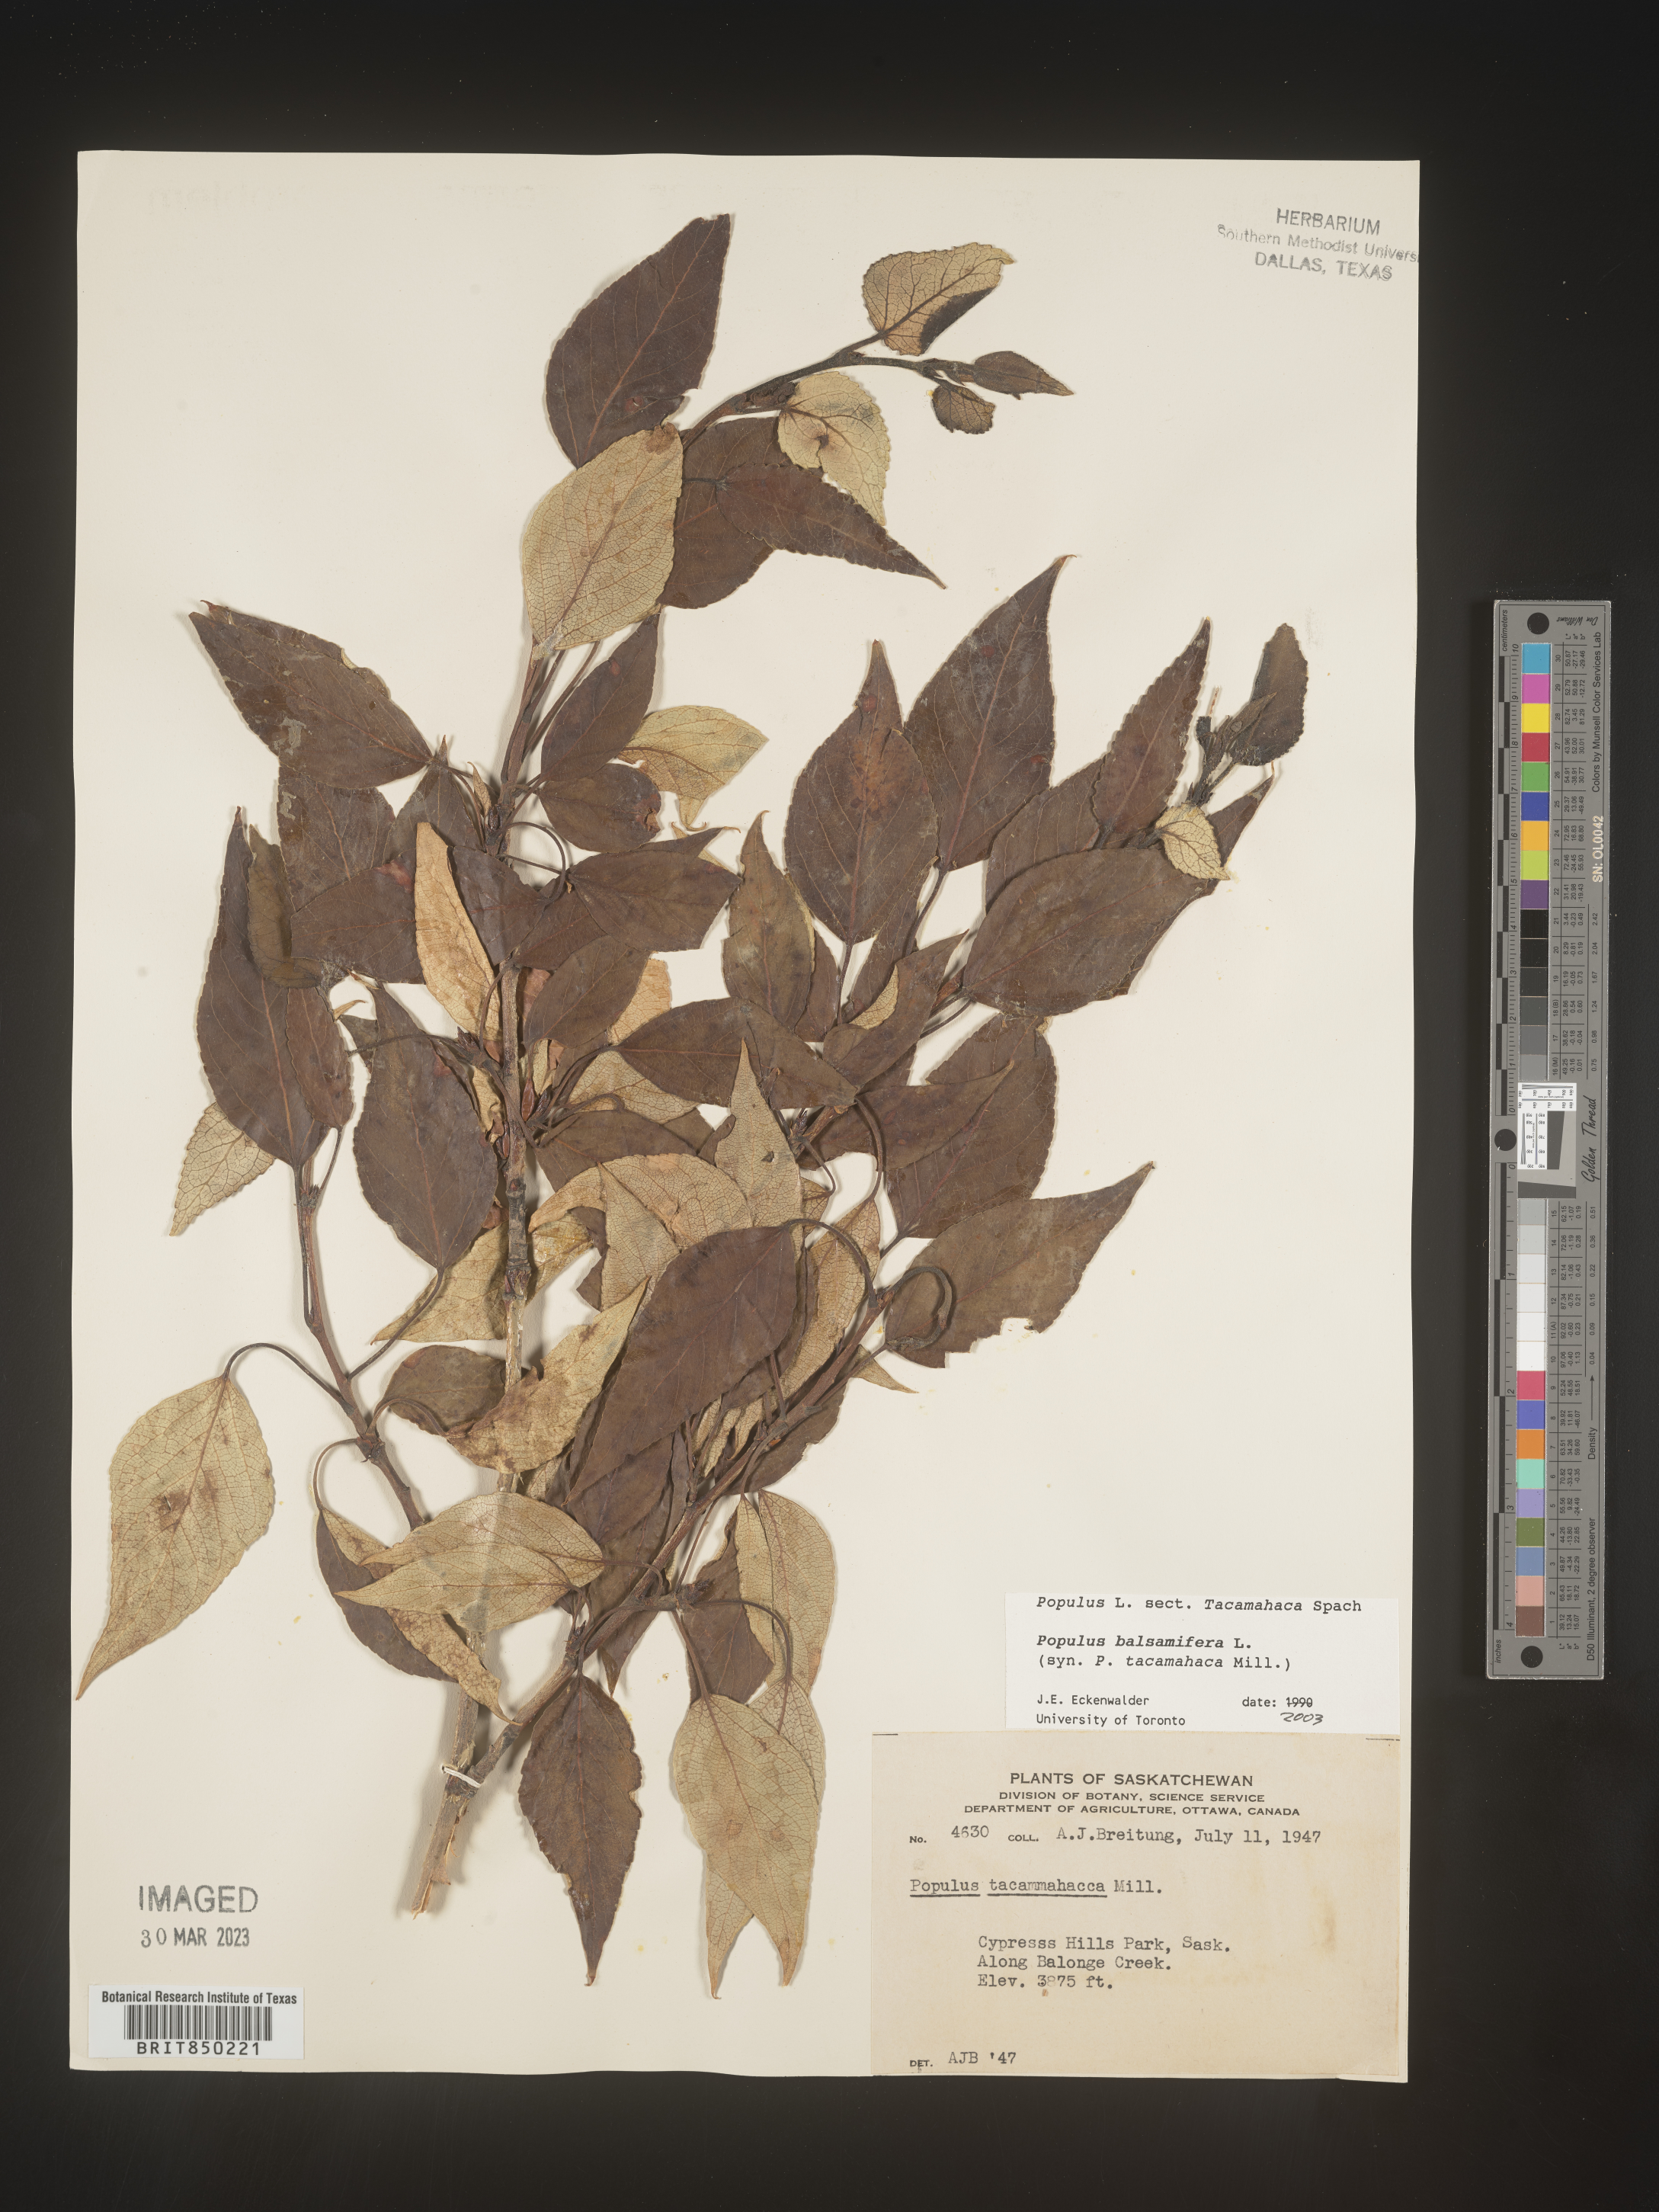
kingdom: Plantae
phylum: Tracheophyta
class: Magnoliopsida
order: Malpighiales
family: Salicaceae
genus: Populus
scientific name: Populus balsamifera
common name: Balsam poplar
